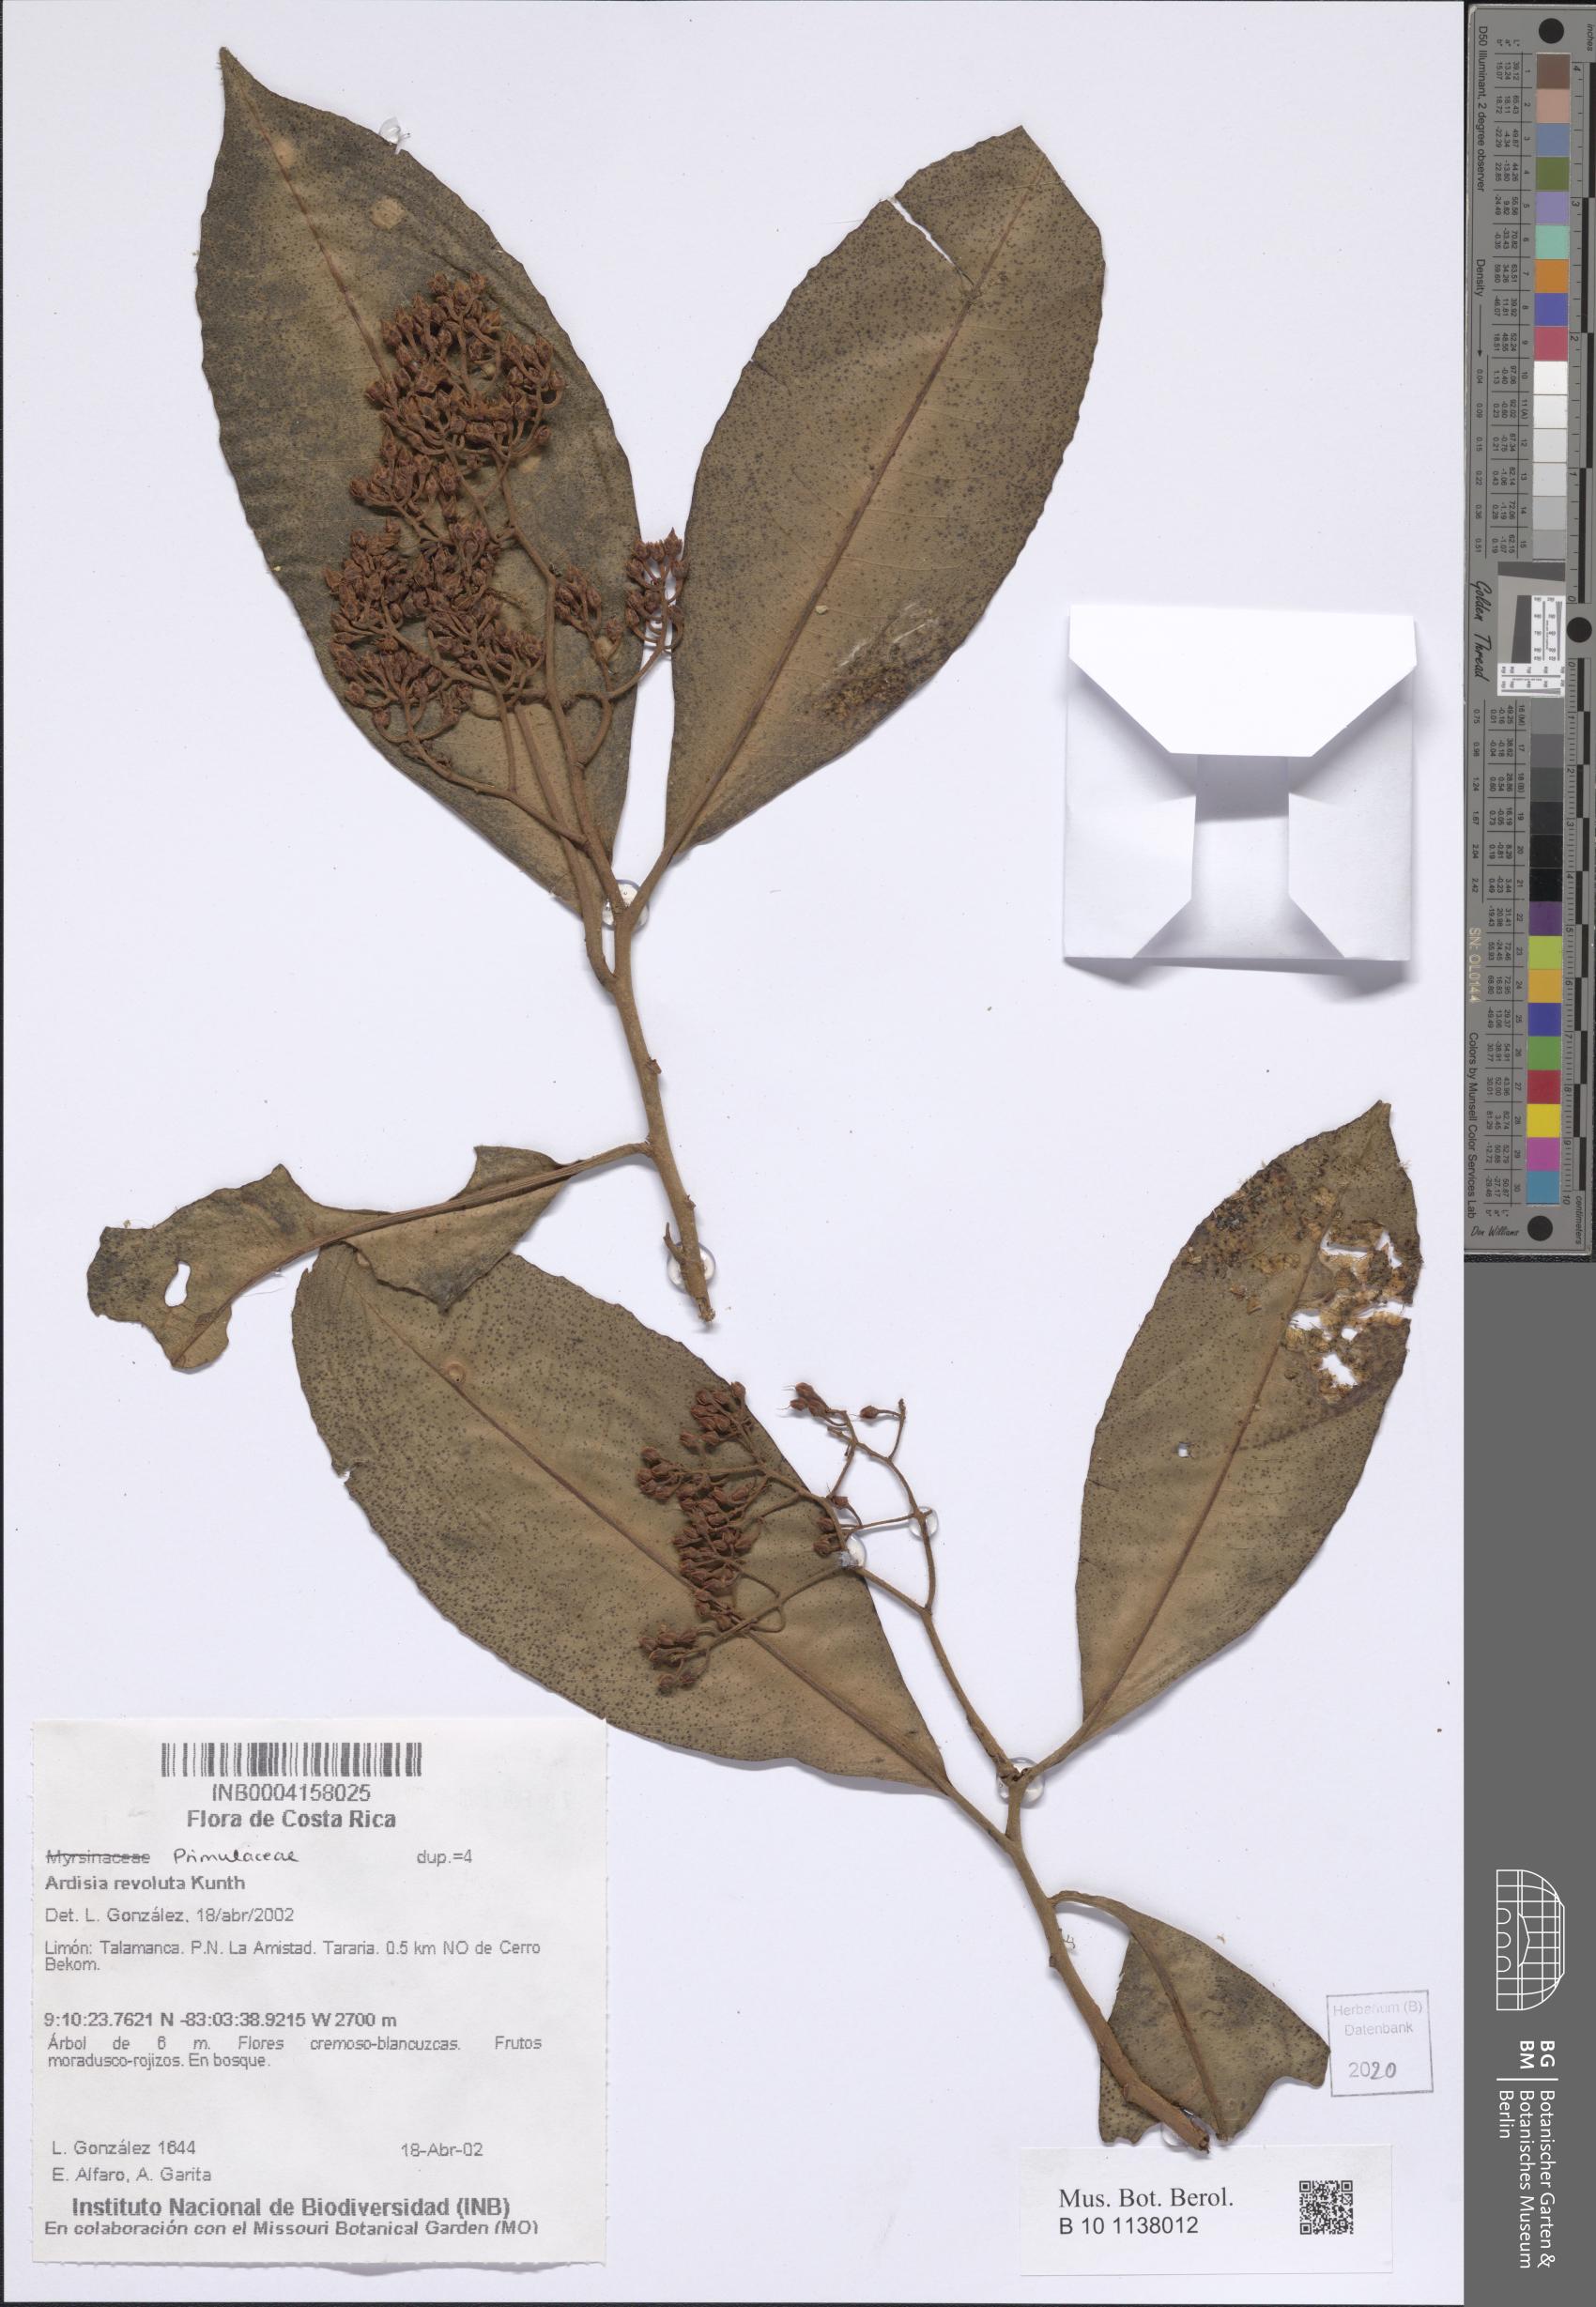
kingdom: Plantae
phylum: Tracheophyta
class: Magnoliopsida
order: Ericales
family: Primulaceae
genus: Ardisia
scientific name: Ardisia revoluta
